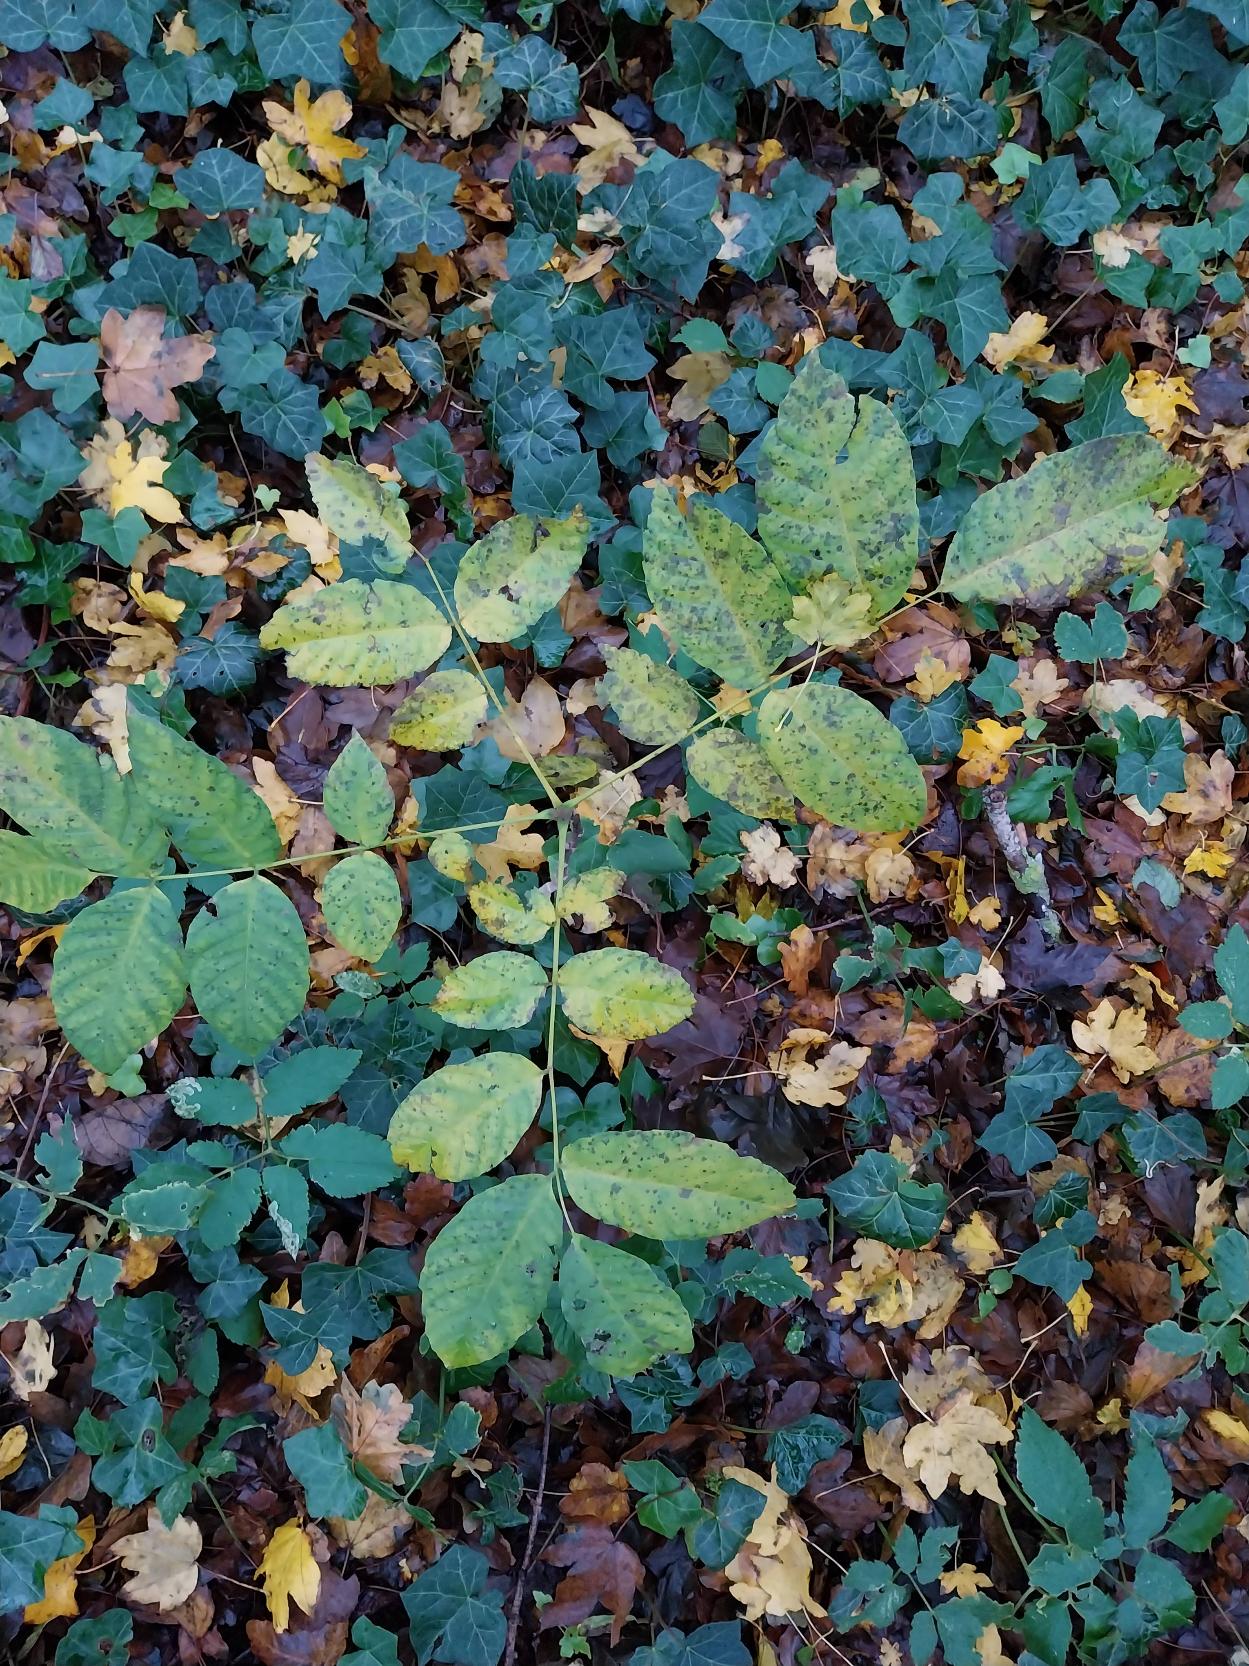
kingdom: Plantae
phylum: Tracheophyta
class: Magnoliopsida
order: Fagales
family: Juglandaceae
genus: Juglans
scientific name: Juglans regia
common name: Almindelig valnød
